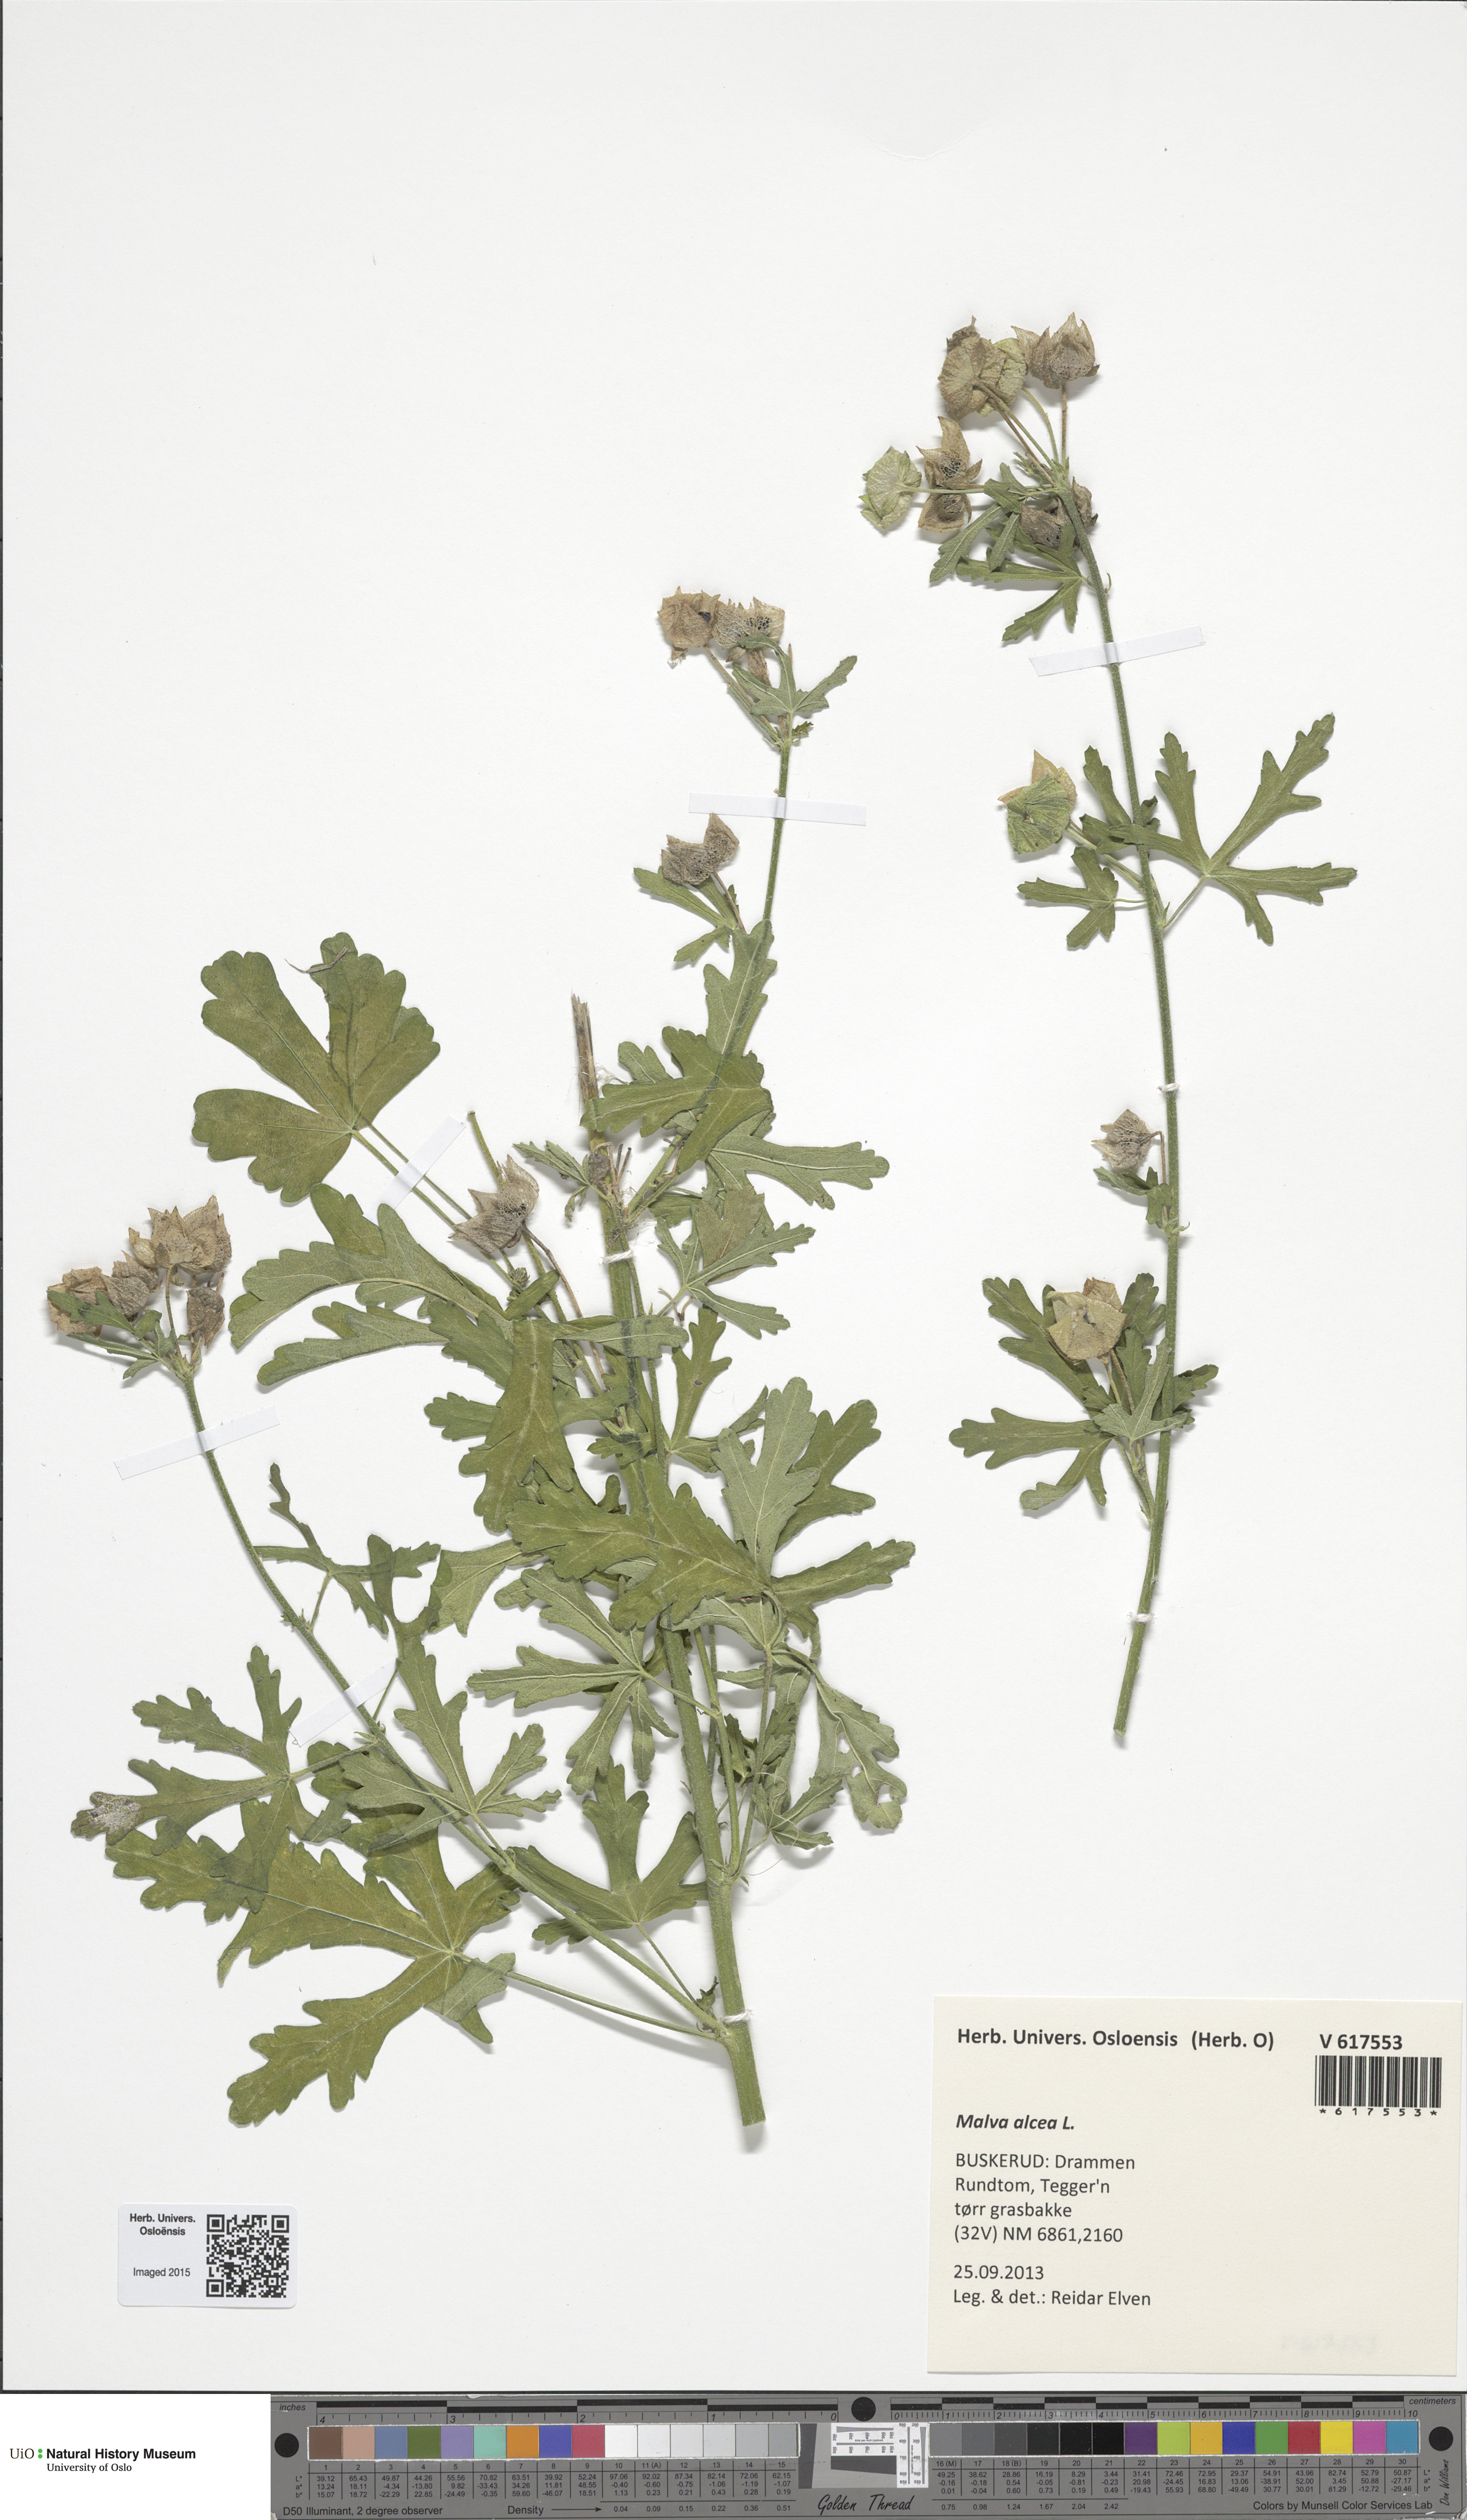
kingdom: Plantae
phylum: Tracheophyta
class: Magnoliopsida
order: Malvales
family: Malvaceae
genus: Malva
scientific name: Malva alcea
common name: Greater musk-mallow
